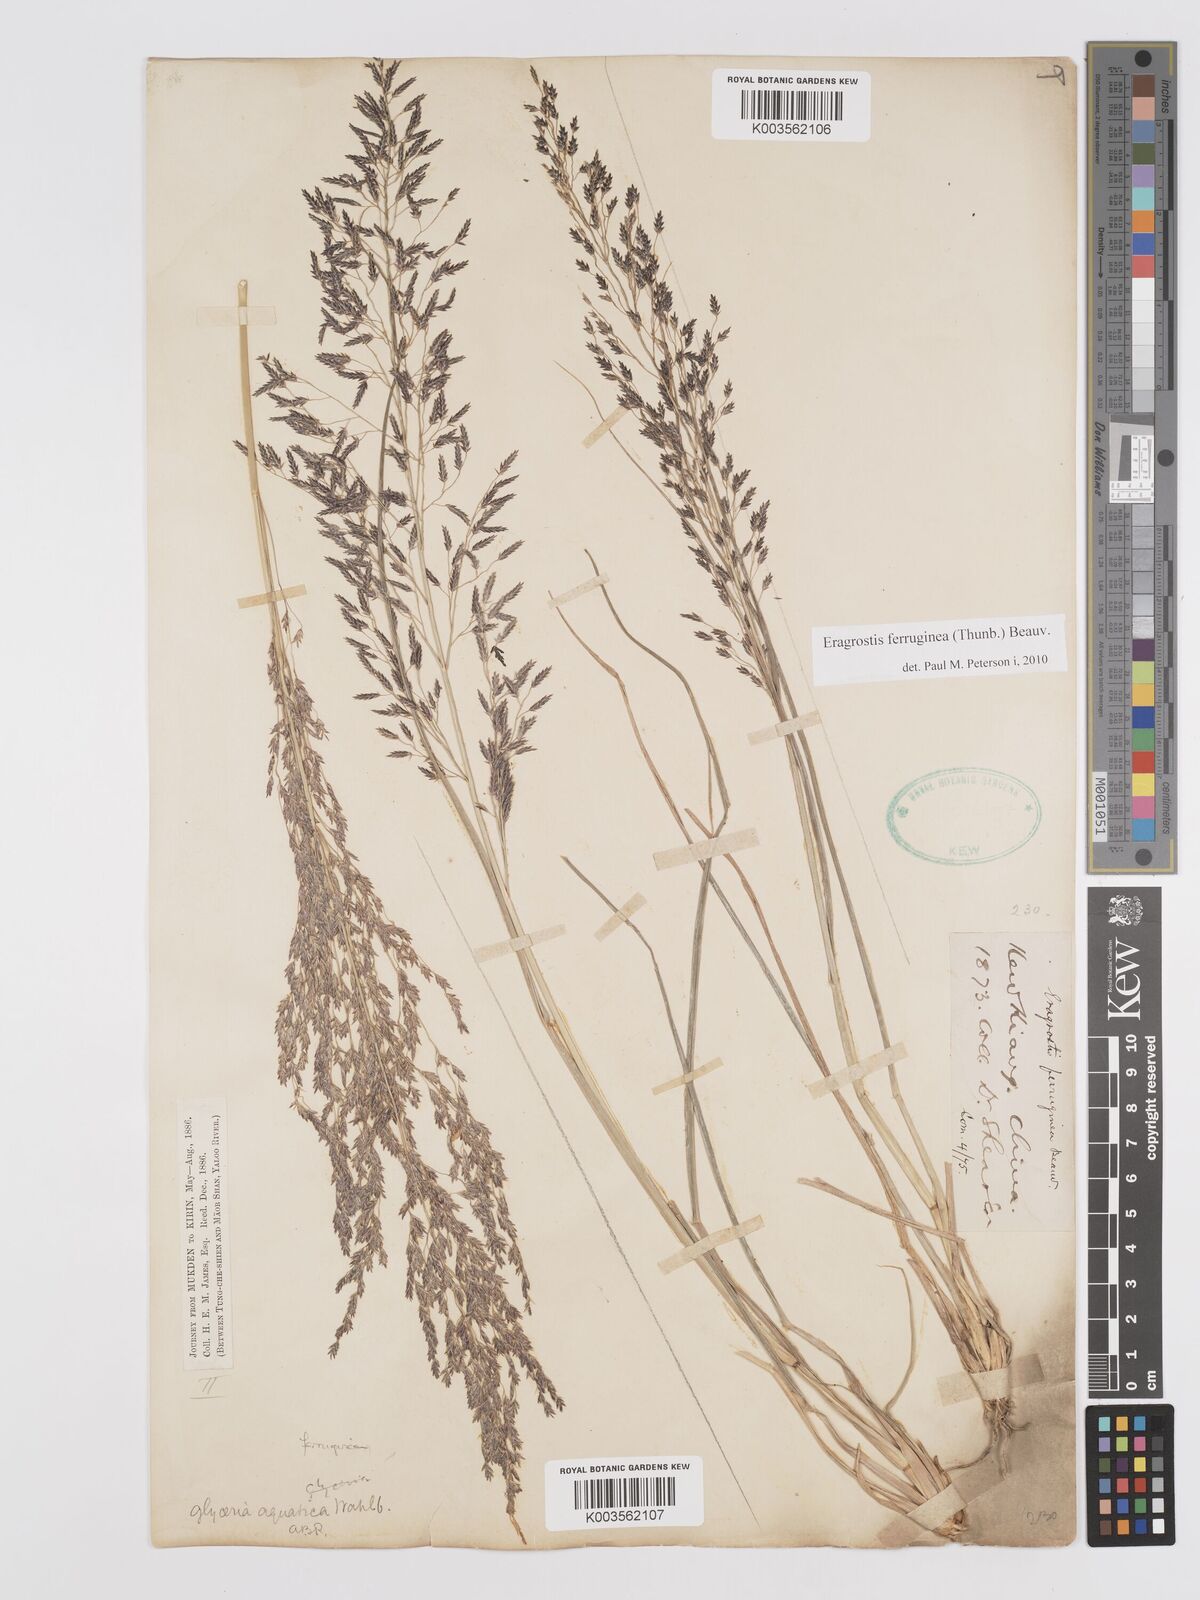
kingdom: Plantae
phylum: Tracheophyta
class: Liliopsida
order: Poales
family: Poaceae
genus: Eragrostis
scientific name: Eragrostis ferruginea
